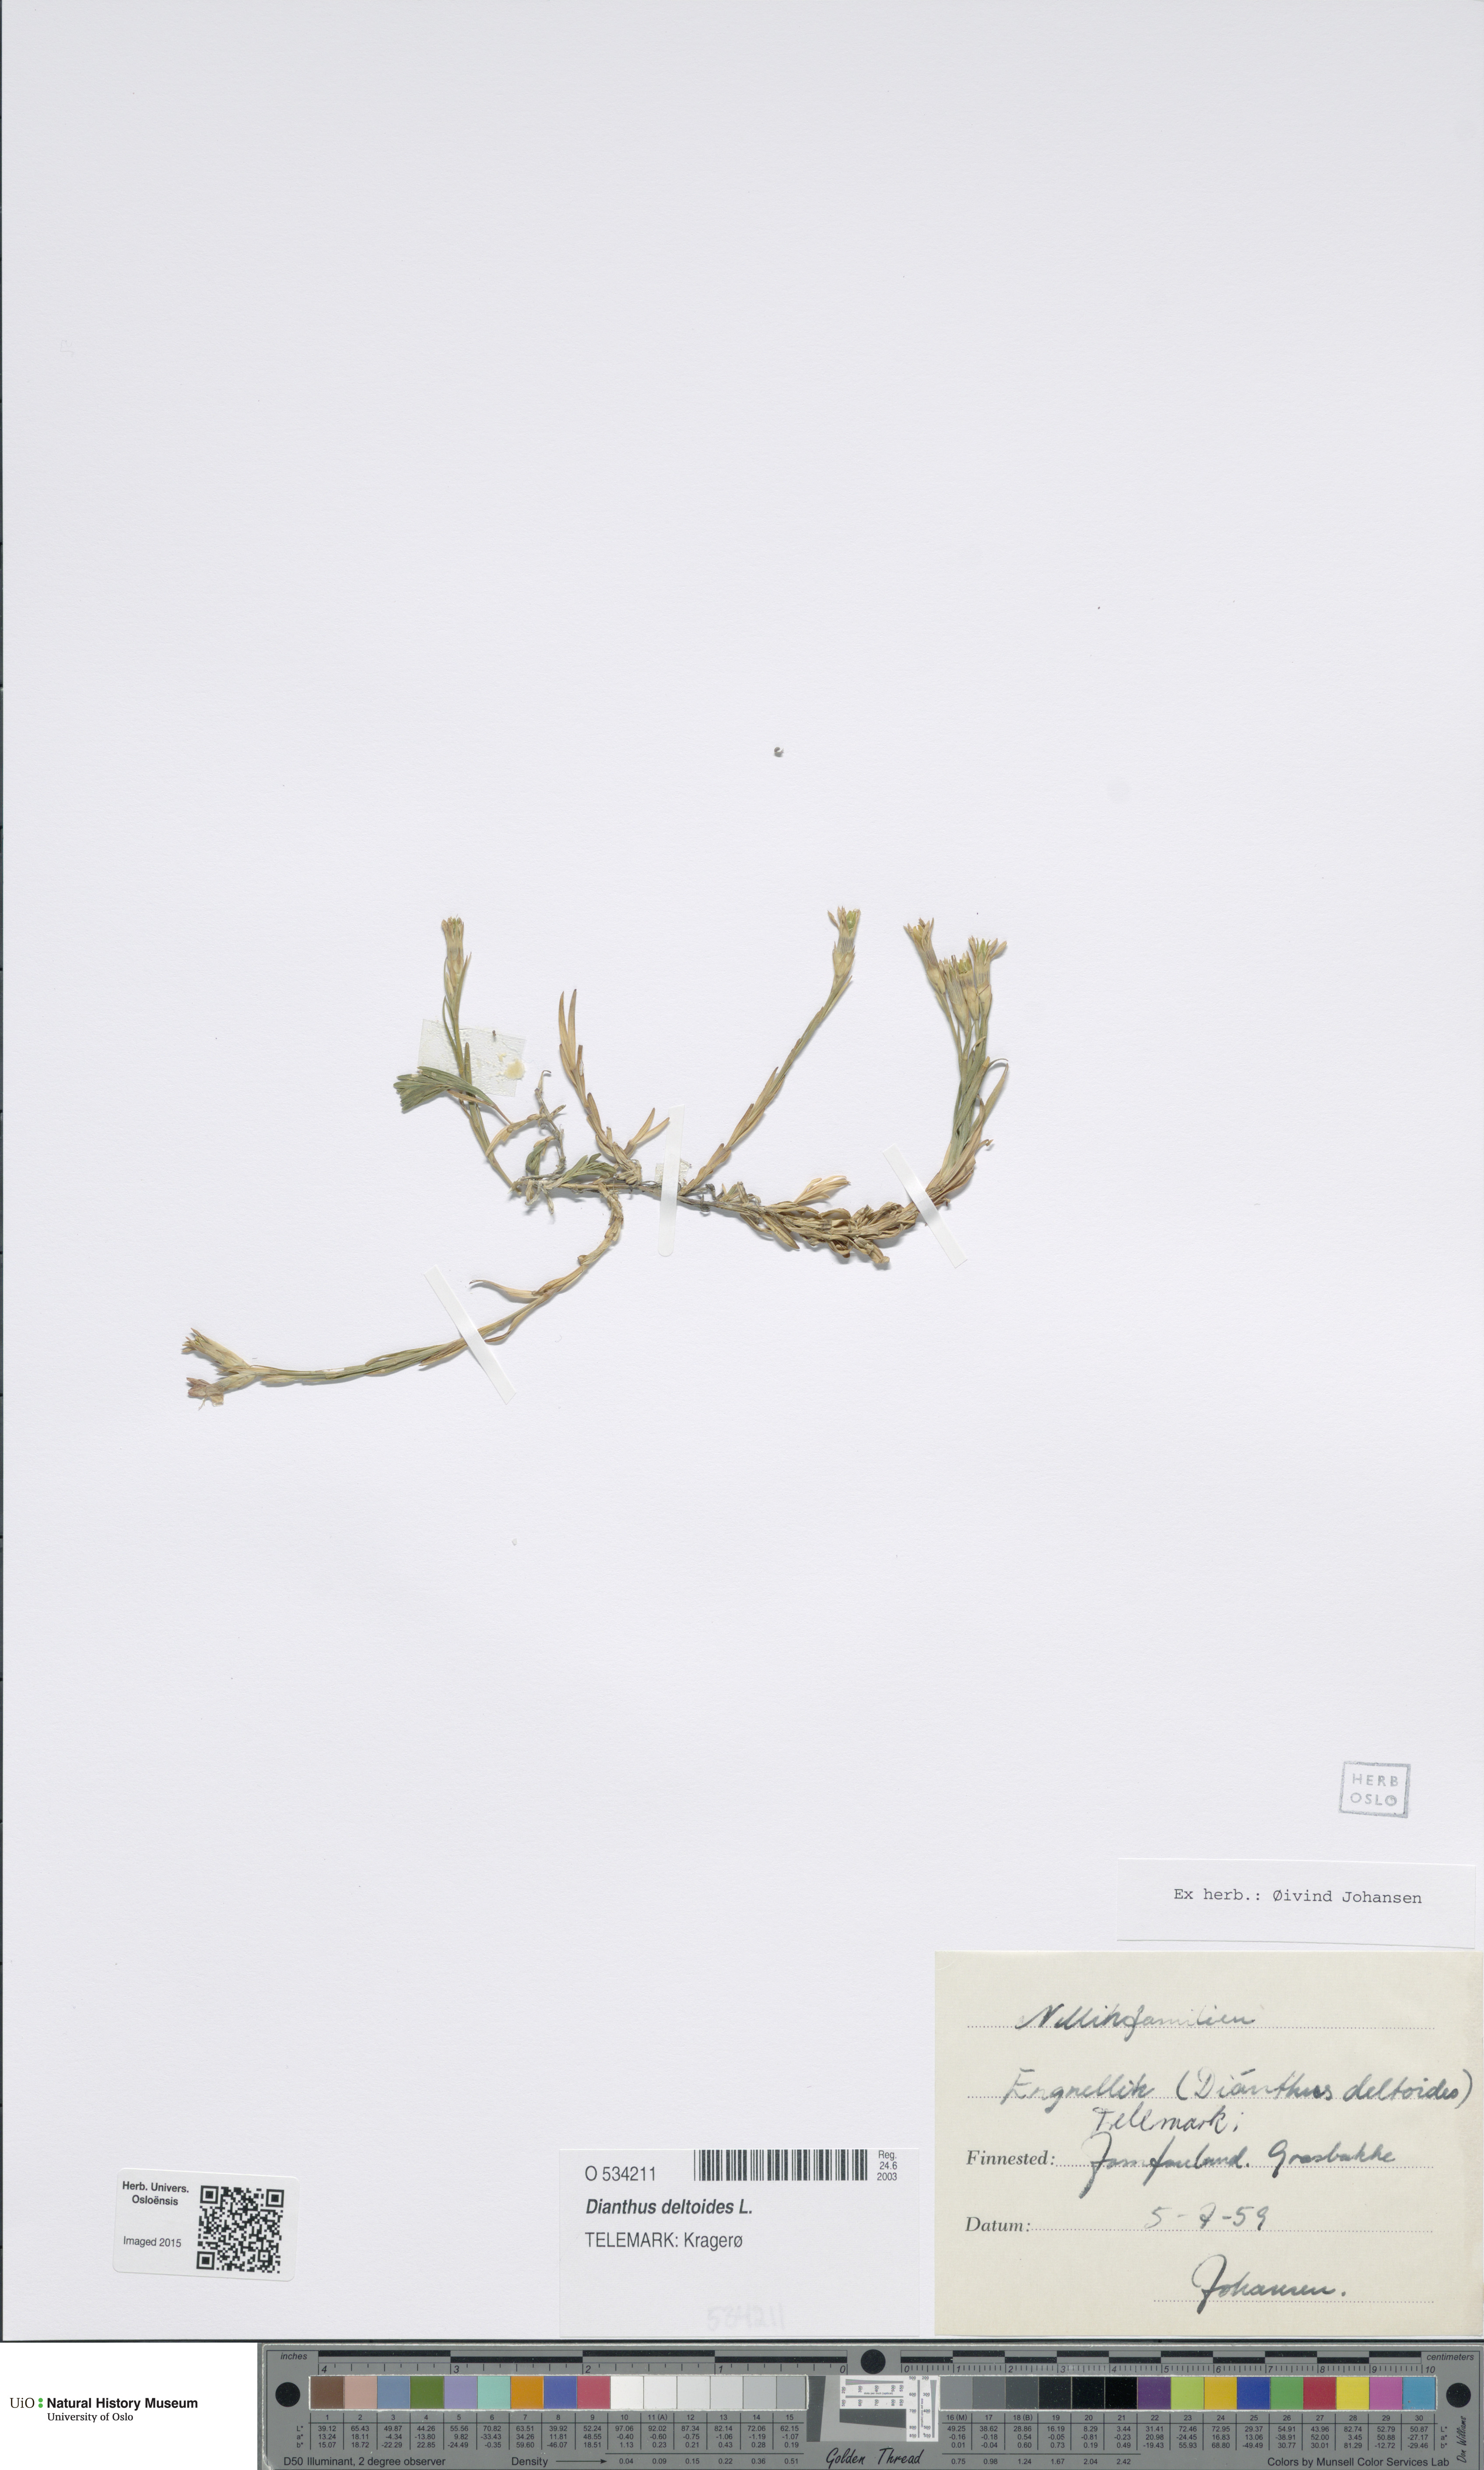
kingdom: Plantae
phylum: Tracheophyta
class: Magnoliopsida
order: Caryophyllales
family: Caryophyllaceae
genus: Dianthus
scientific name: Dianthus deltoides
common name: Maiden pink
